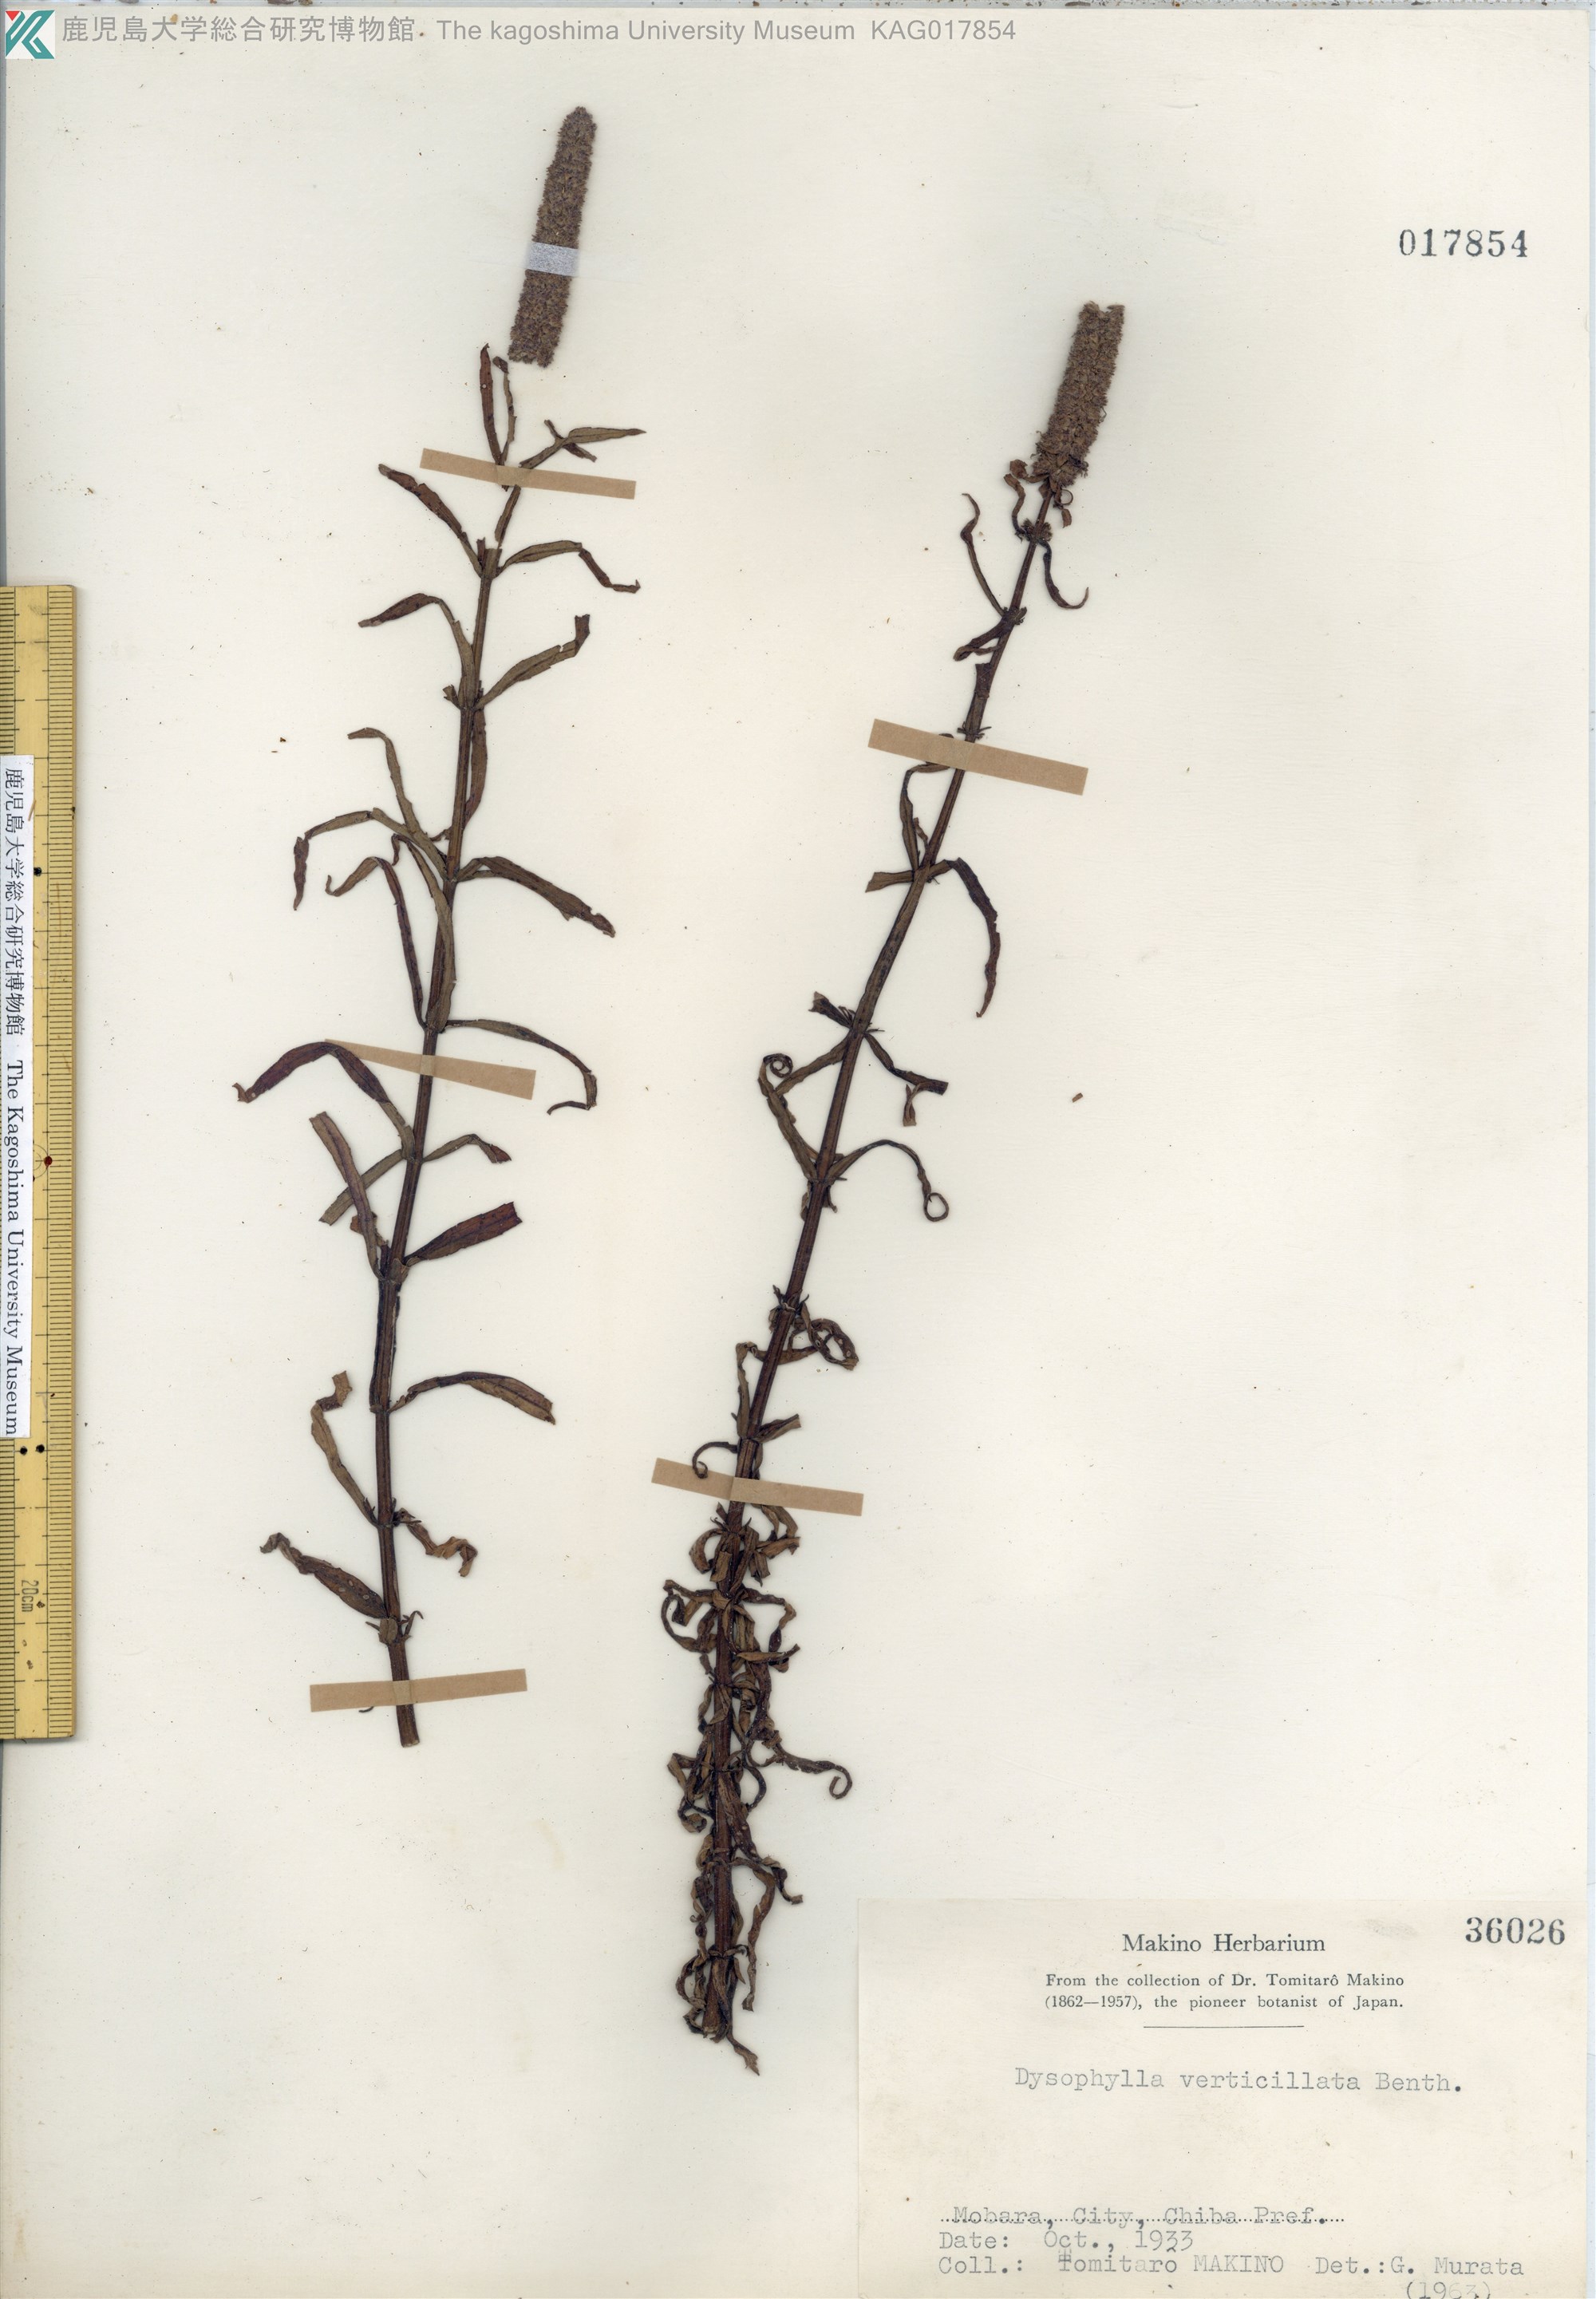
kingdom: Plantae
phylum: Tracheophyta
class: Magnoliopsida
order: Lamiales
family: Lamiaceae
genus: Pogostemon
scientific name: Pogostemon stellatus
